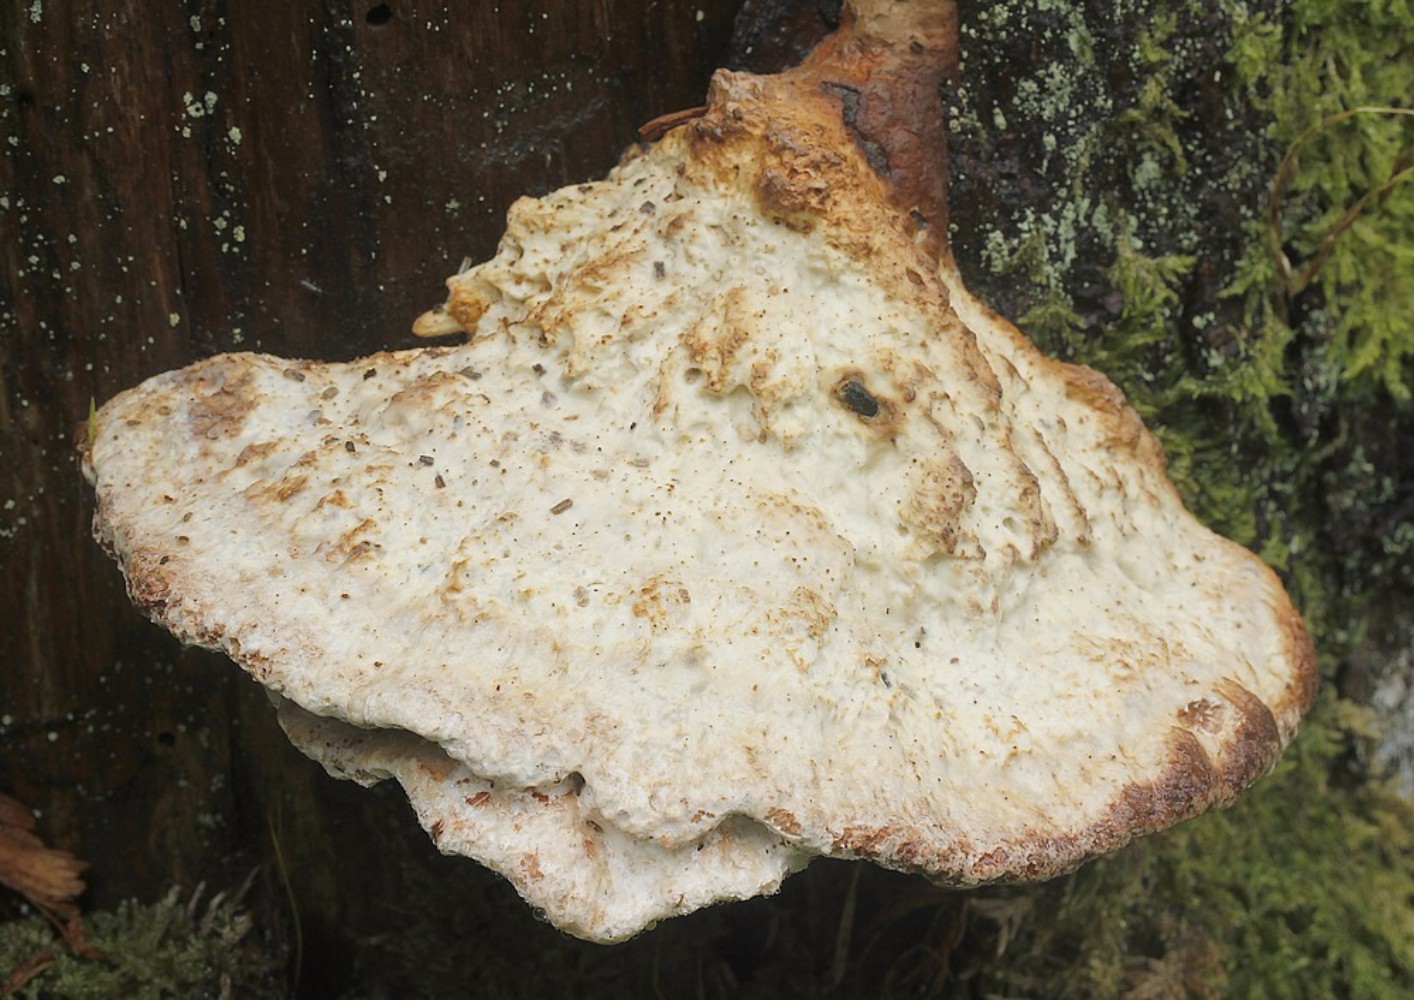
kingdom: Fungi
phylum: Basidiomycota
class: Agaricomycetes
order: Polyporales
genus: Calcipostia
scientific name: Calcipostia guttulata
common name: dråbe-kødporesvamp
